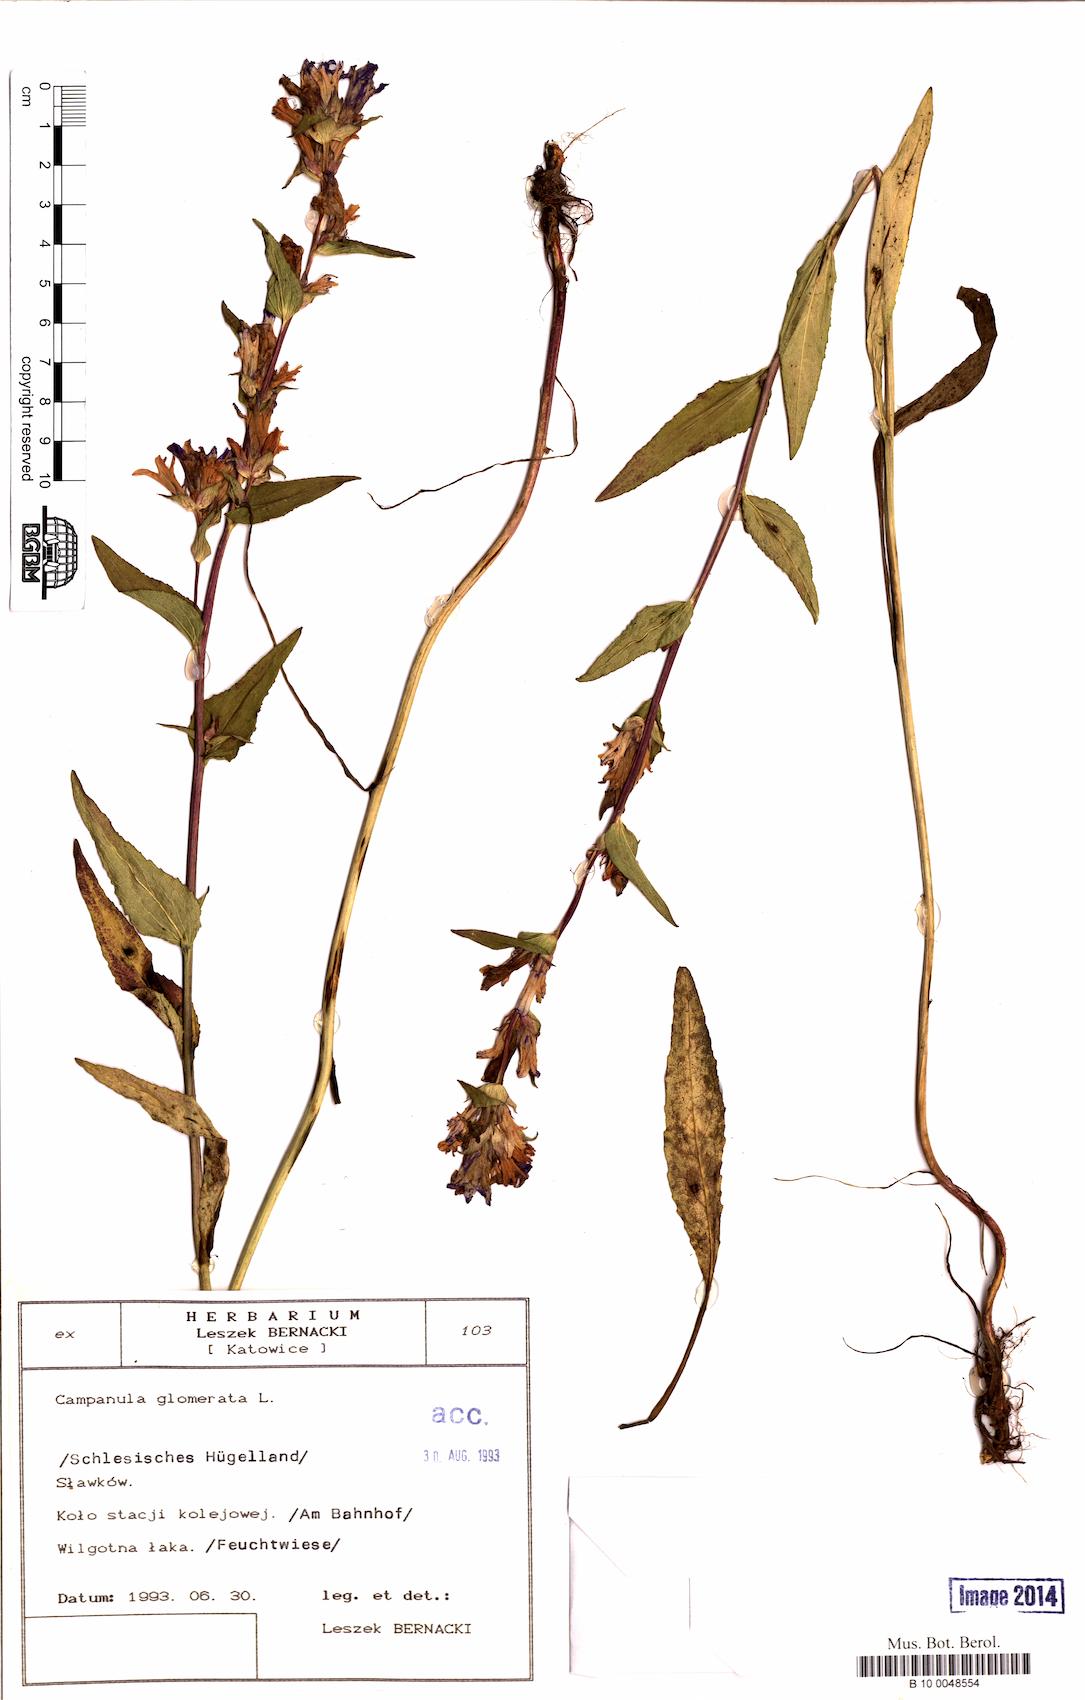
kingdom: Plantae
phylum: Tracheophyta
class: Magnoliopsida
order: Asterales
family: Campanulaceae
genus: Campanula
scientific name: Campanula glomerata
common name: Clustered bellflower
